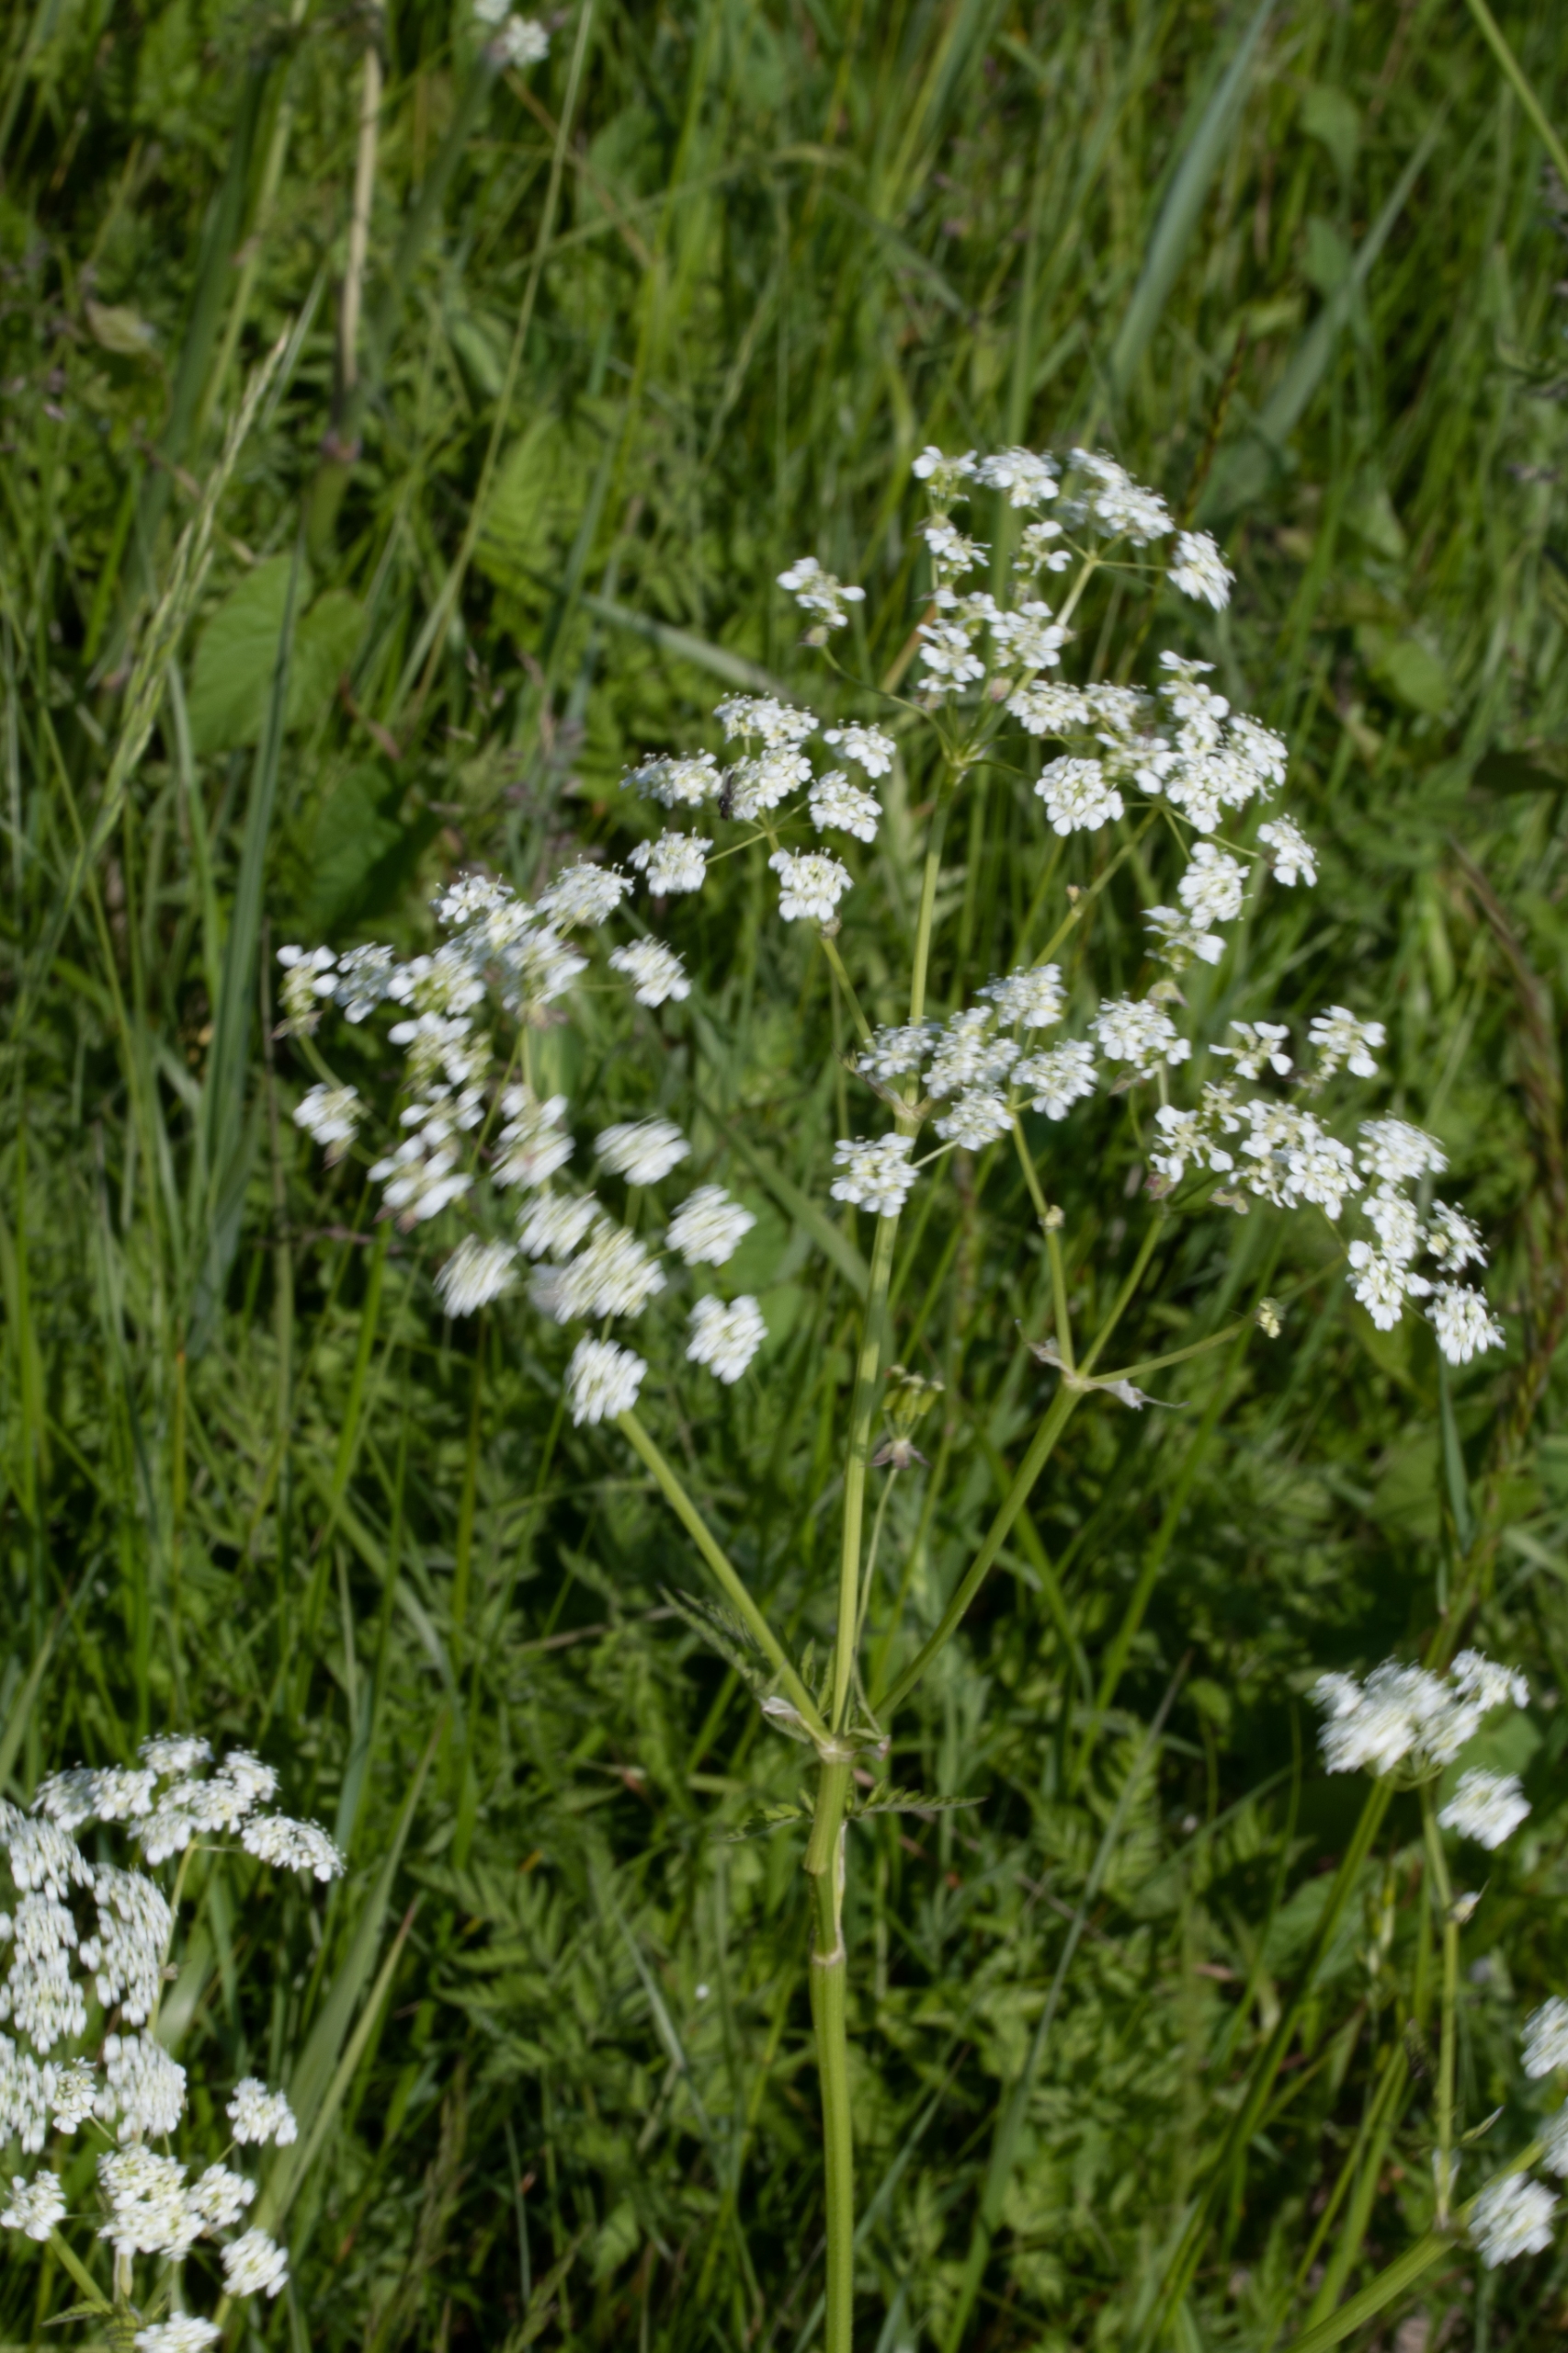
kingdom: Plantae
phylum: Tracheophyta
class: Magnoliopsida
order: Apiales
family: Apiaceae
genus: Anthriscus
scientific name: Anthriscus sylvestris
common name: Vild kørvel
